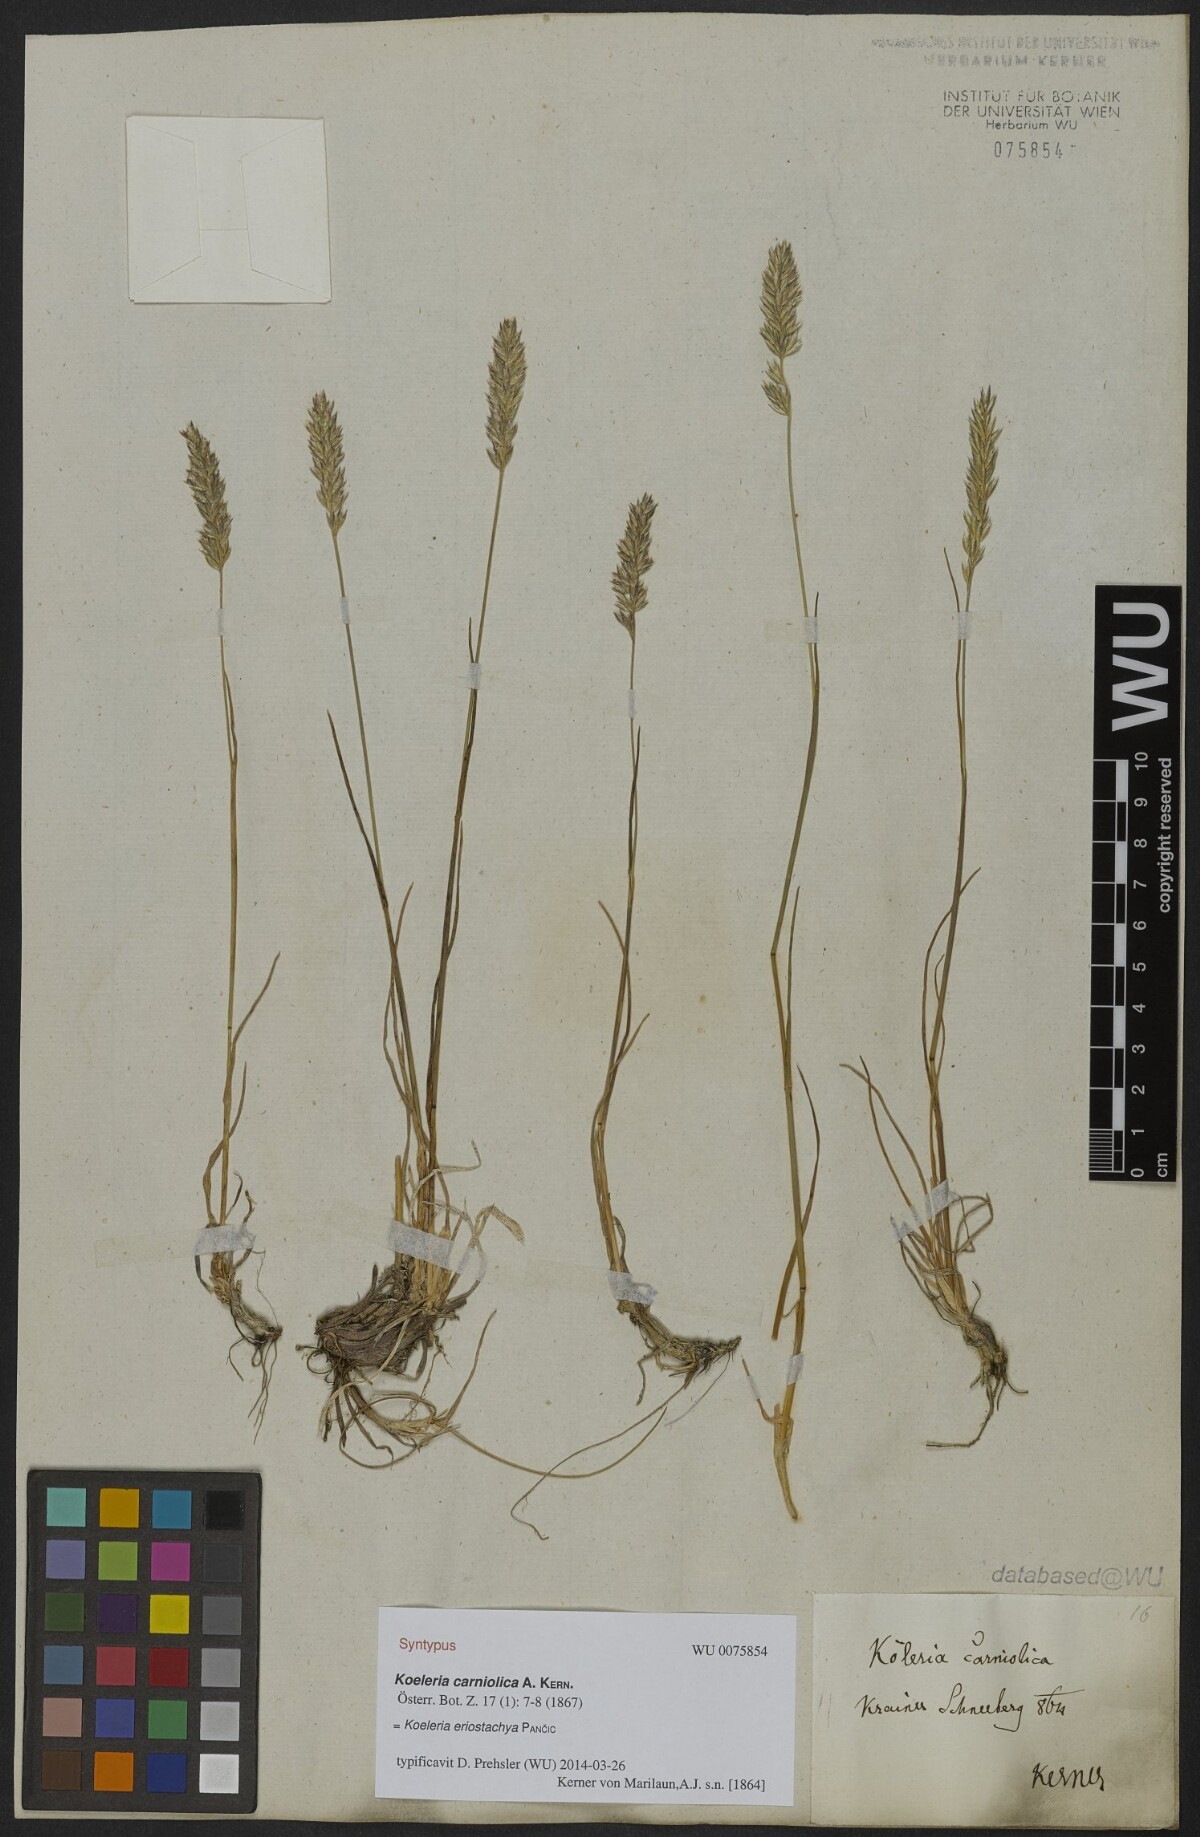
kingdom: Plantae
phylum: Tracheophyta
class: Liliopsida
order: Poales
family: Poaceae
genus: Koeleria
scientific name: Koeleria eriostachya
